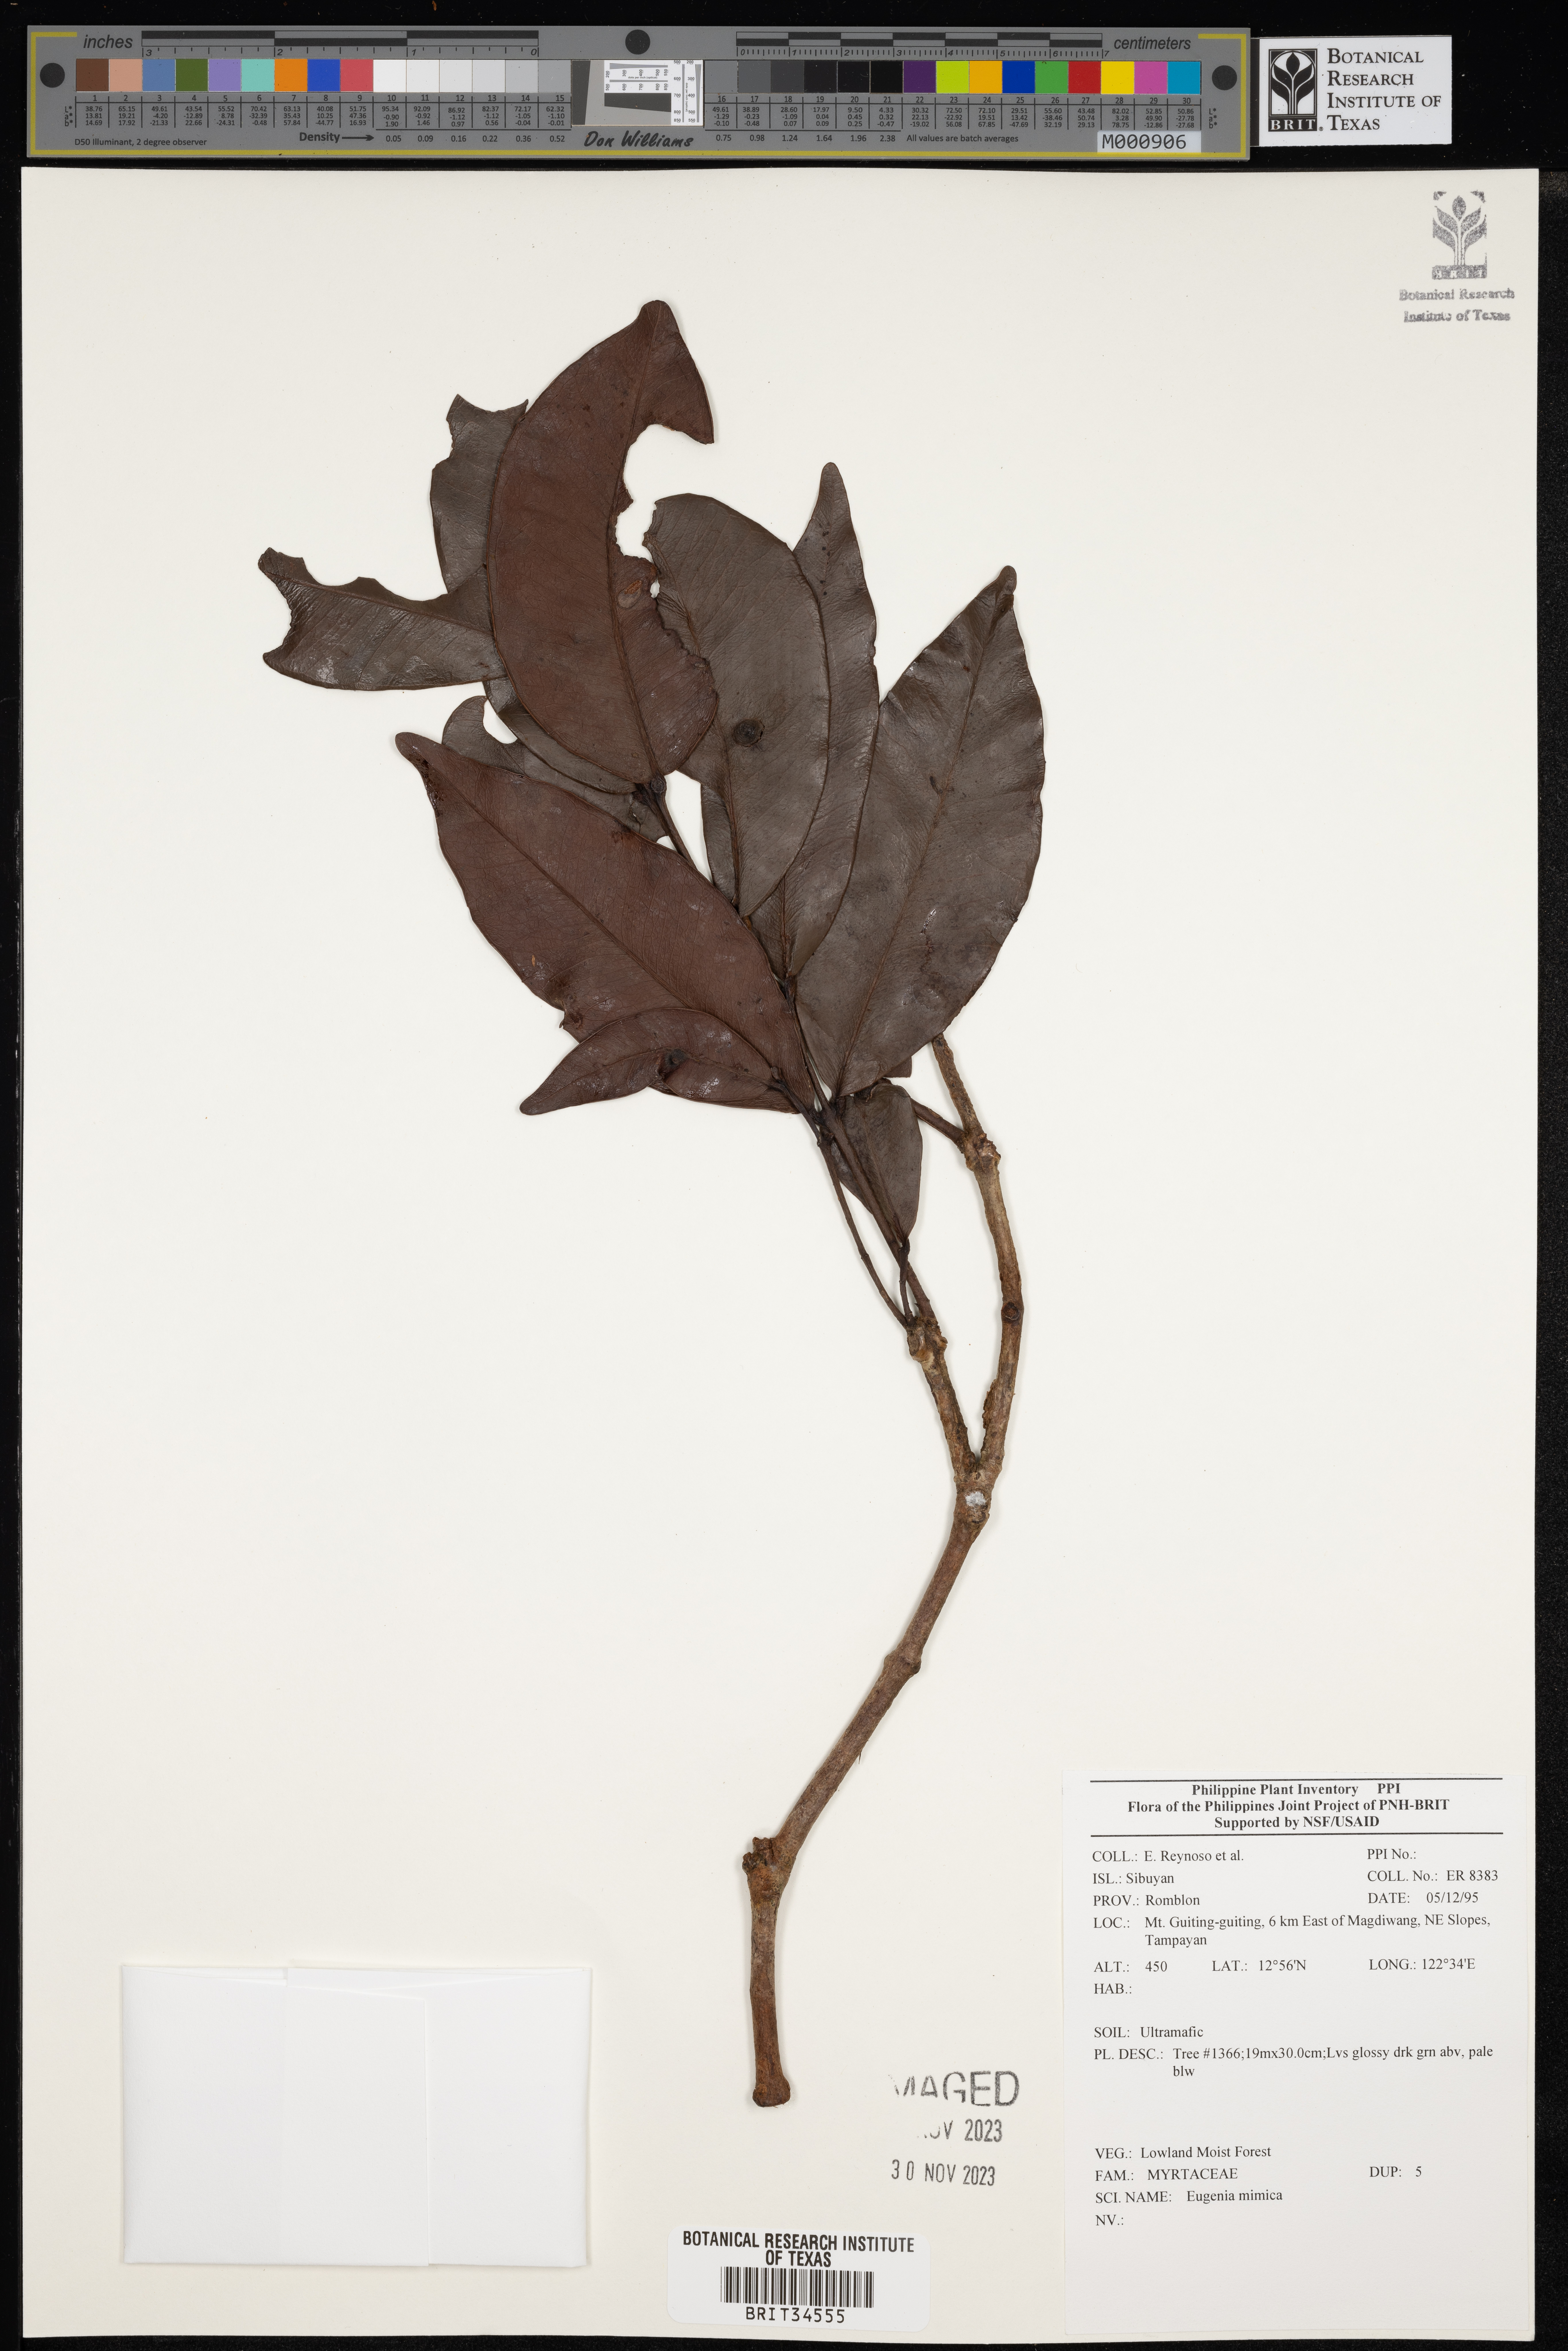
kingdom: Plantae
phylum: Tracheophyta
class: Magnoliopsida
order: Myrtales
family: Myrtaceae
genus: Eugenia
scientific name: Eugenia
